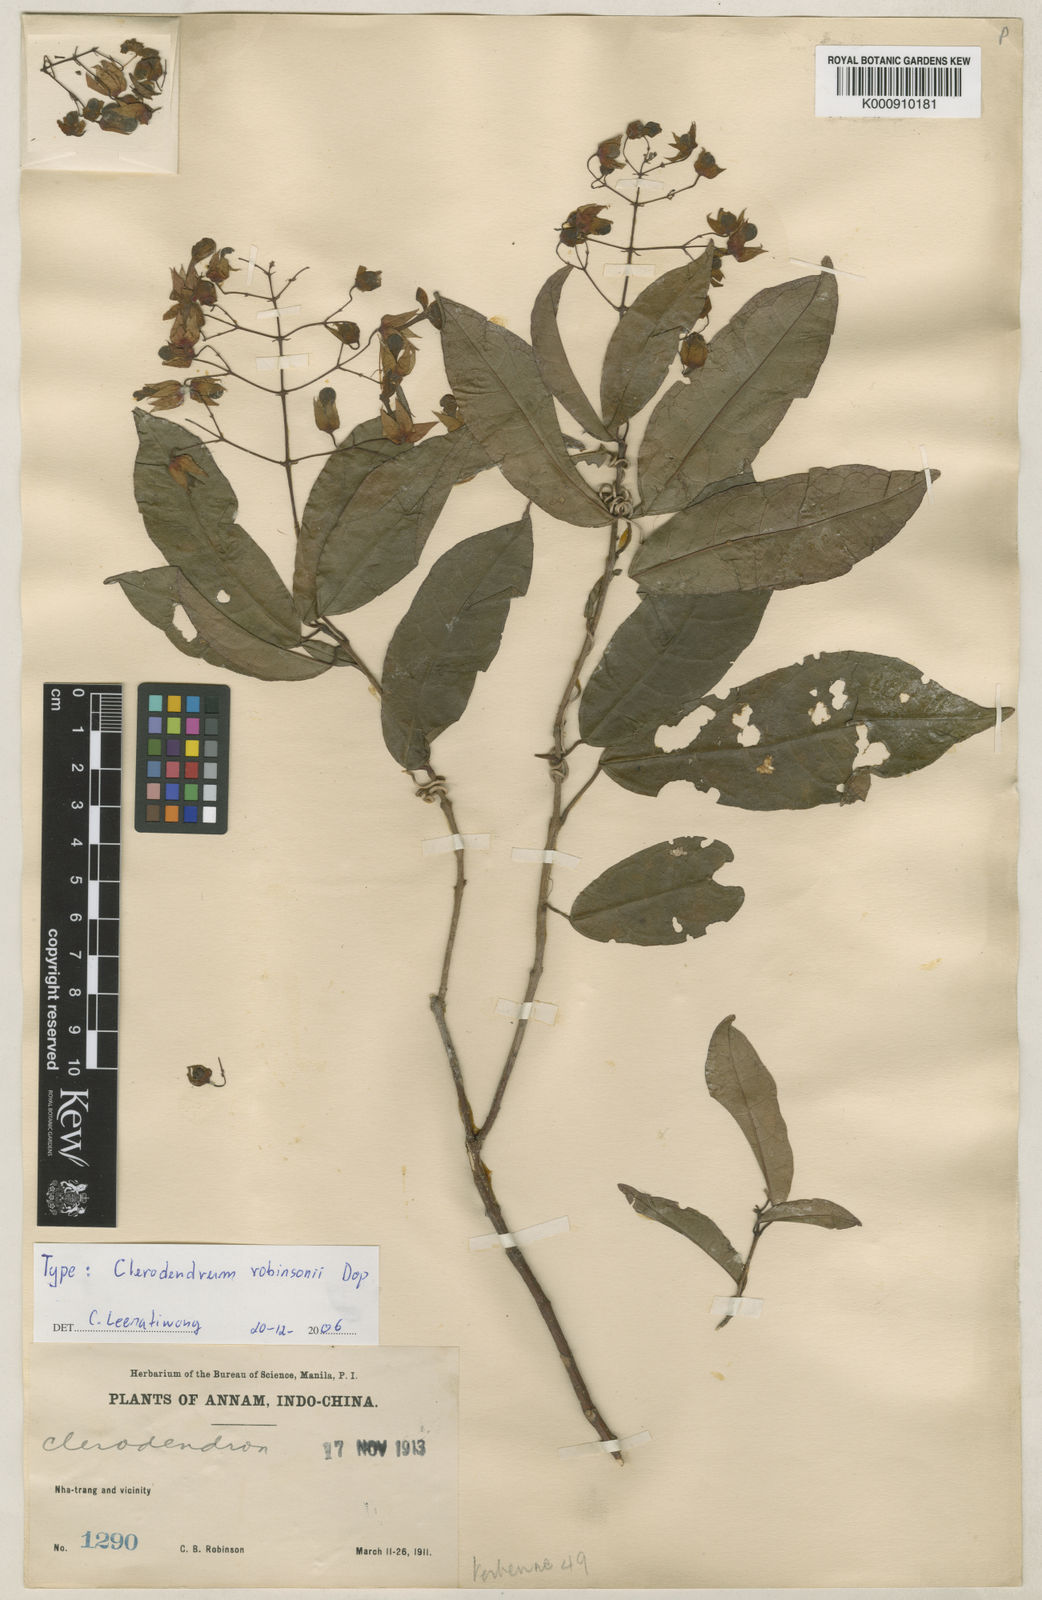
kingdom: Plantae
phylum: Tracheophyta
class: Magnoliopsida
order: Lamiales
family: Lamiaceae
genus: Clerodendrum
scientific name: Clerodendrum
